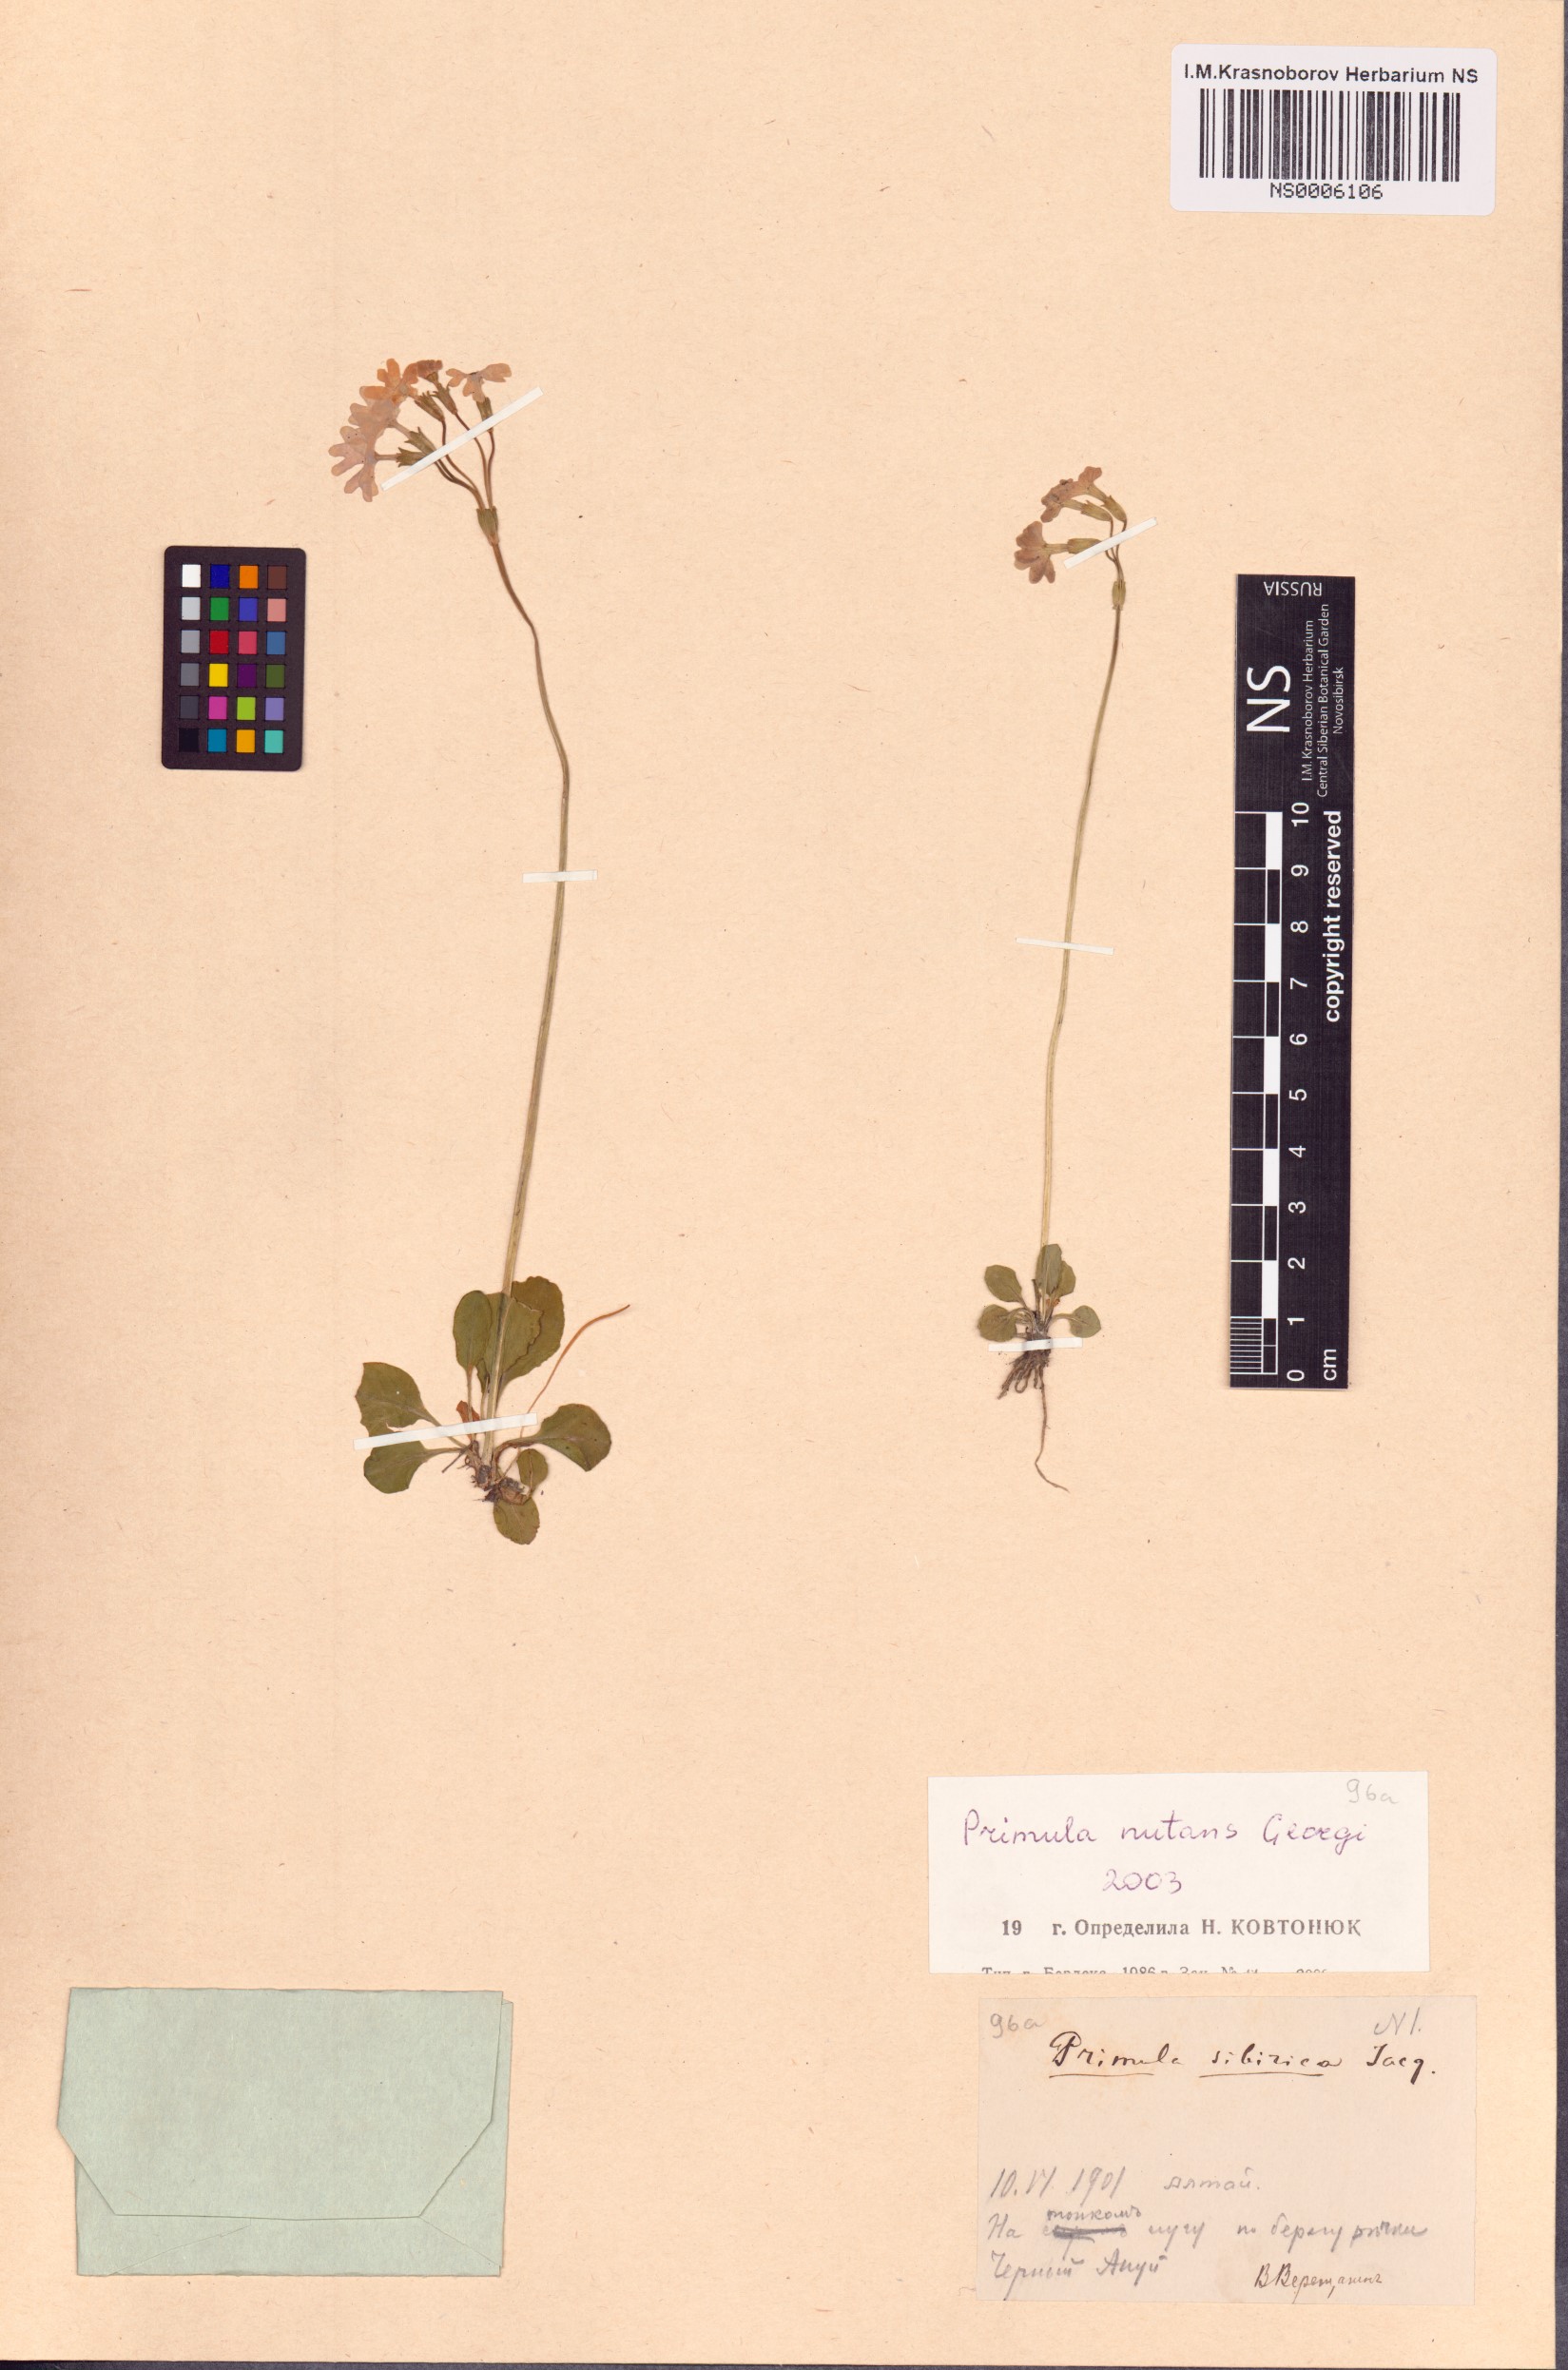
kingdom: Plantae
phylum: Tracheophyta
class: Magnoliopsida
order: Ericales
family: Primulaceae
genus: Primula
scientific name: Primula nutans
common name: Siberian primrose
